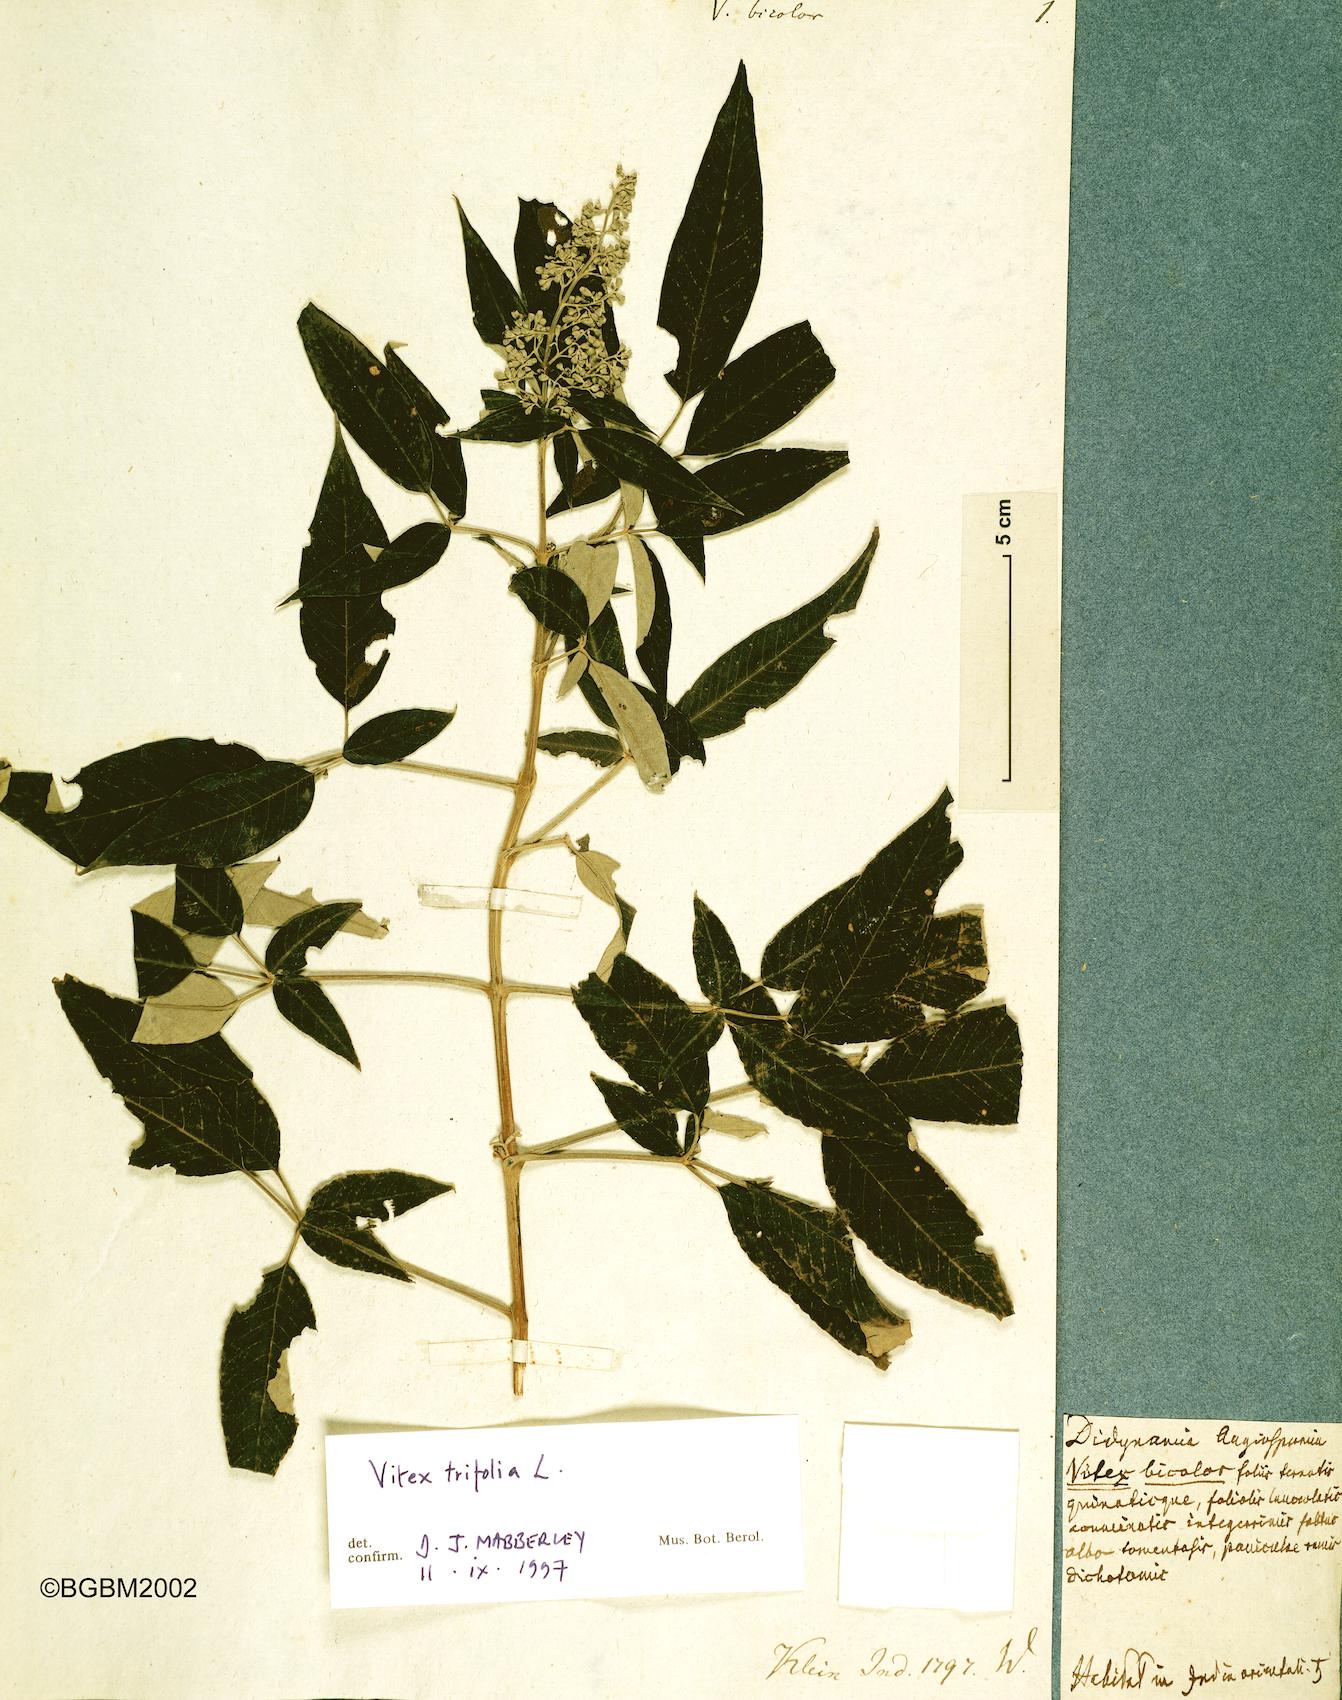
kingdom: Plantae
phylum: Tracheophyta
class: Magnoliopsida
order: Lamiales
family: Lamiaceae
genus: Vitex
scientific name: Vitex bicolor
